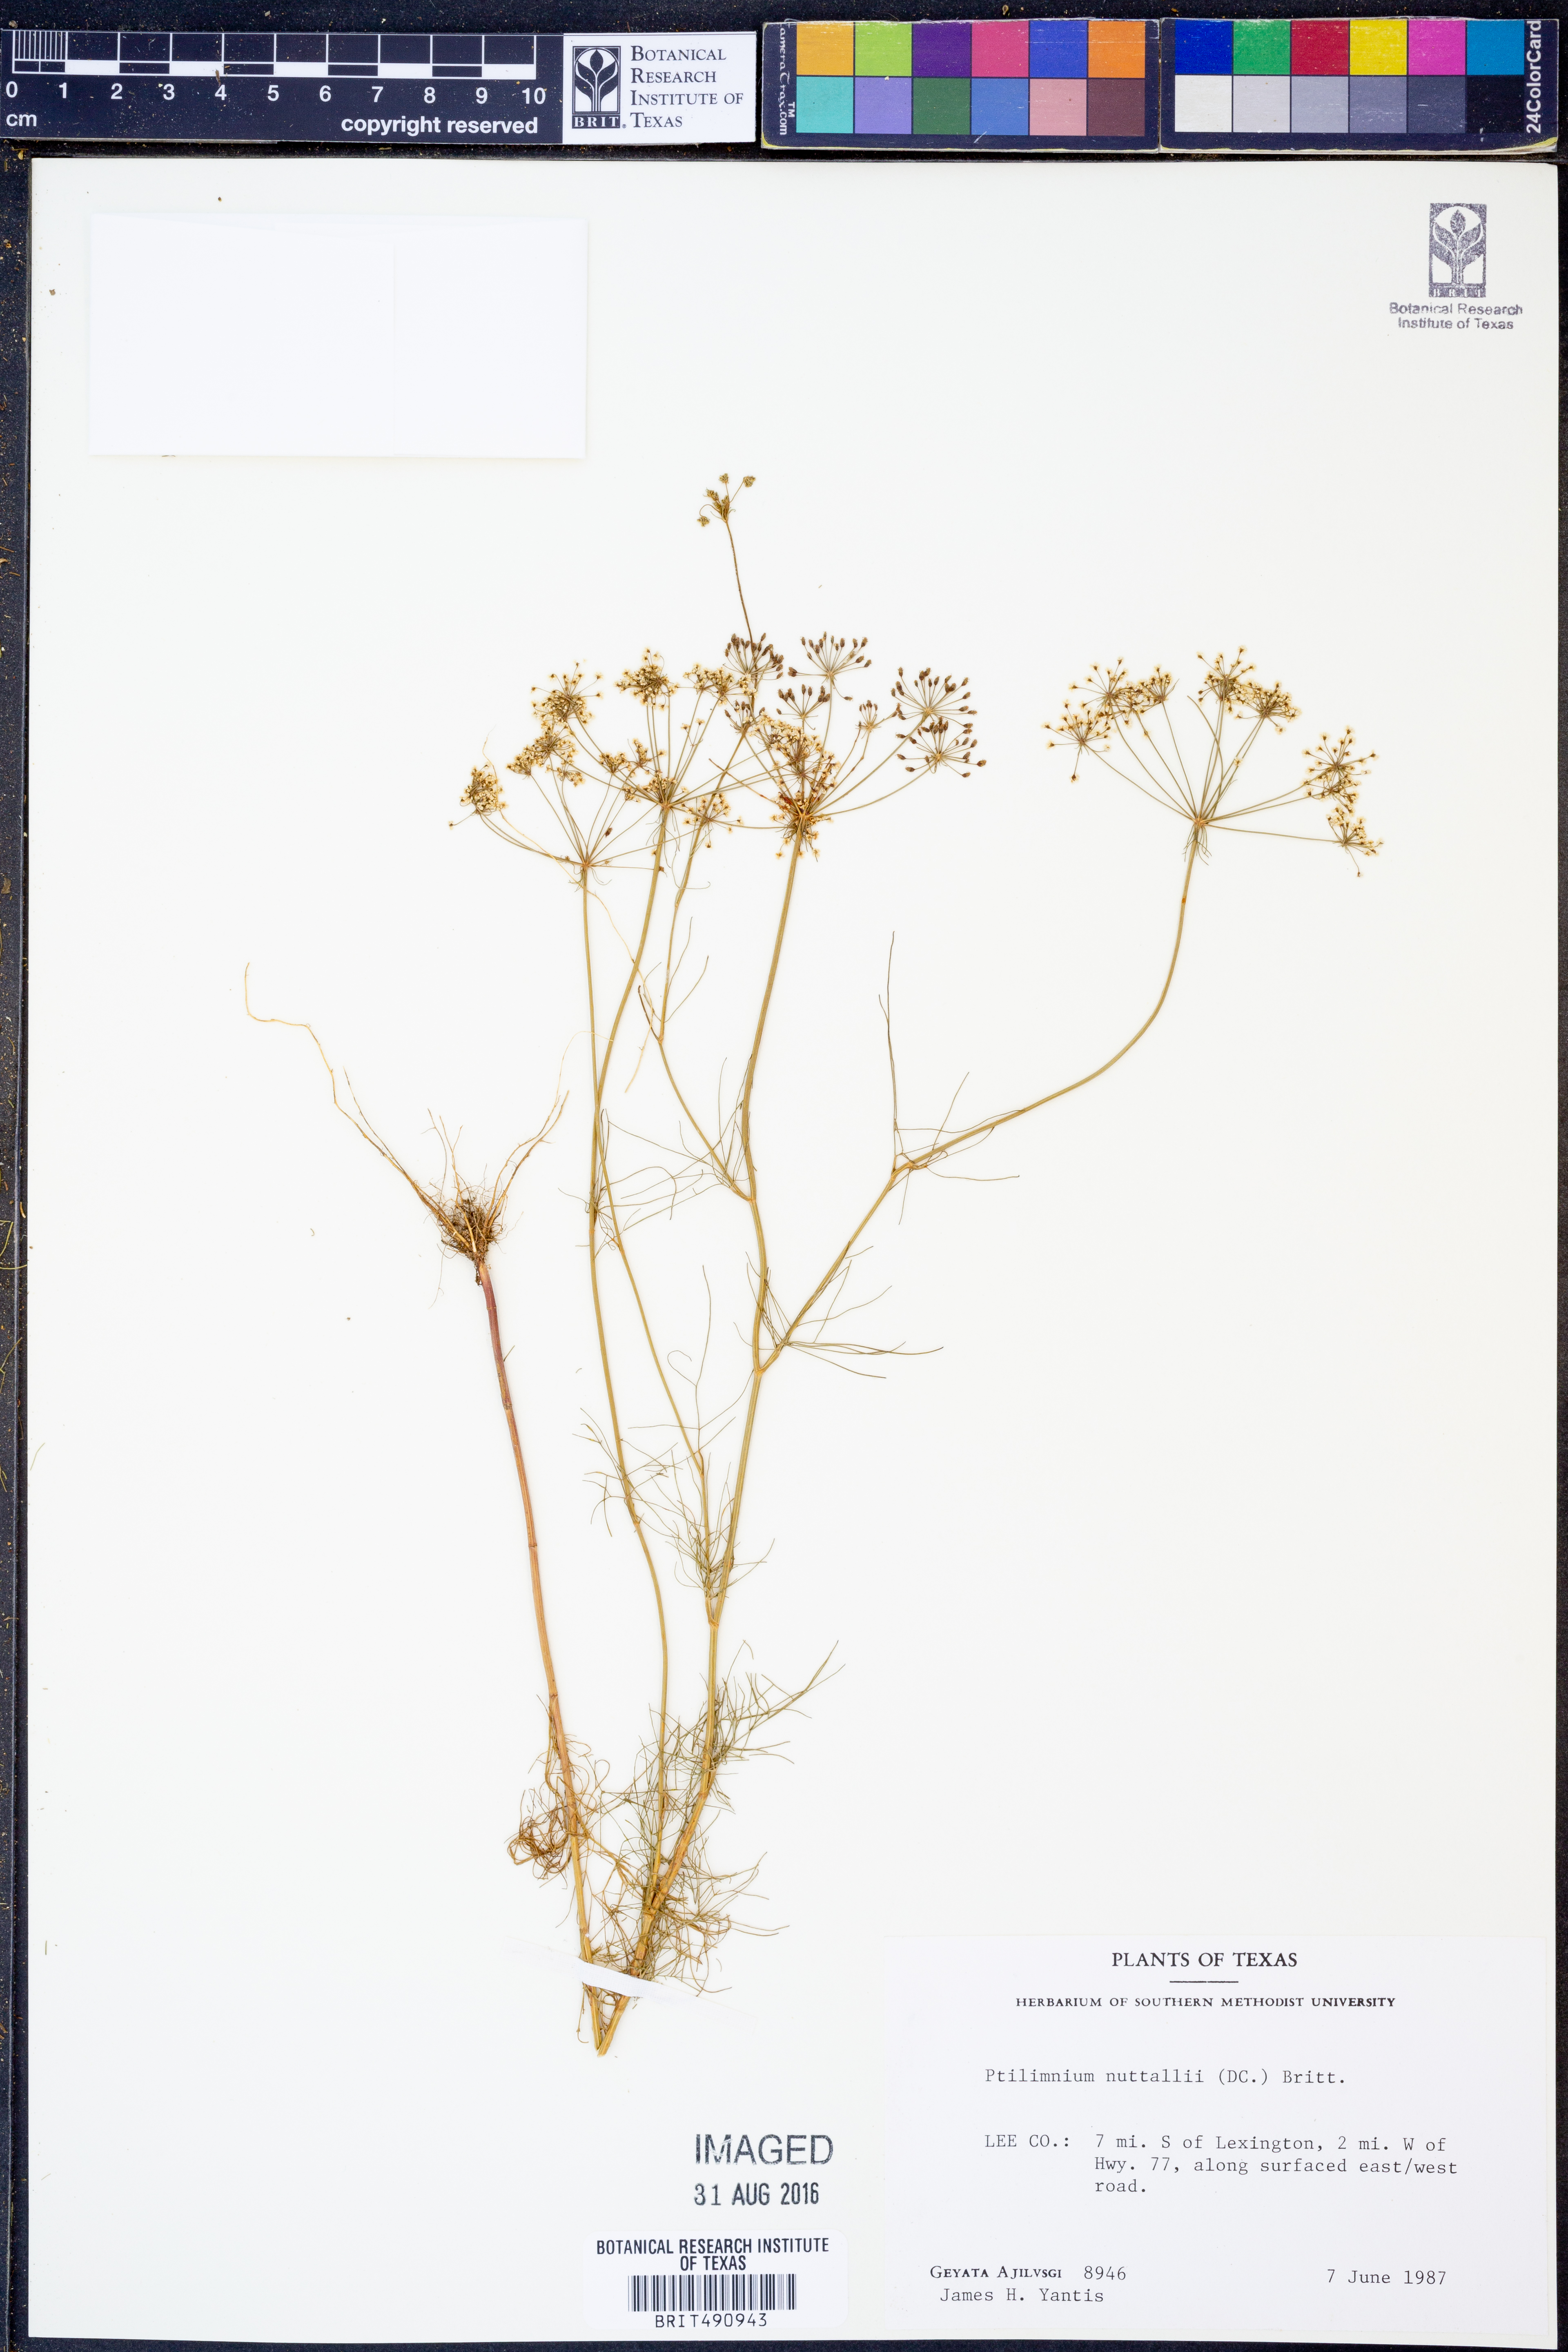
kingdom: Plantae
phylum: Tracheophyta
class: Magnoliopsida
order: Apiales
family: Apiaceae
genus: Ptilimnium
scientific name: Ptilimnium nuttallii
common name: Ozark bishop's-weed
